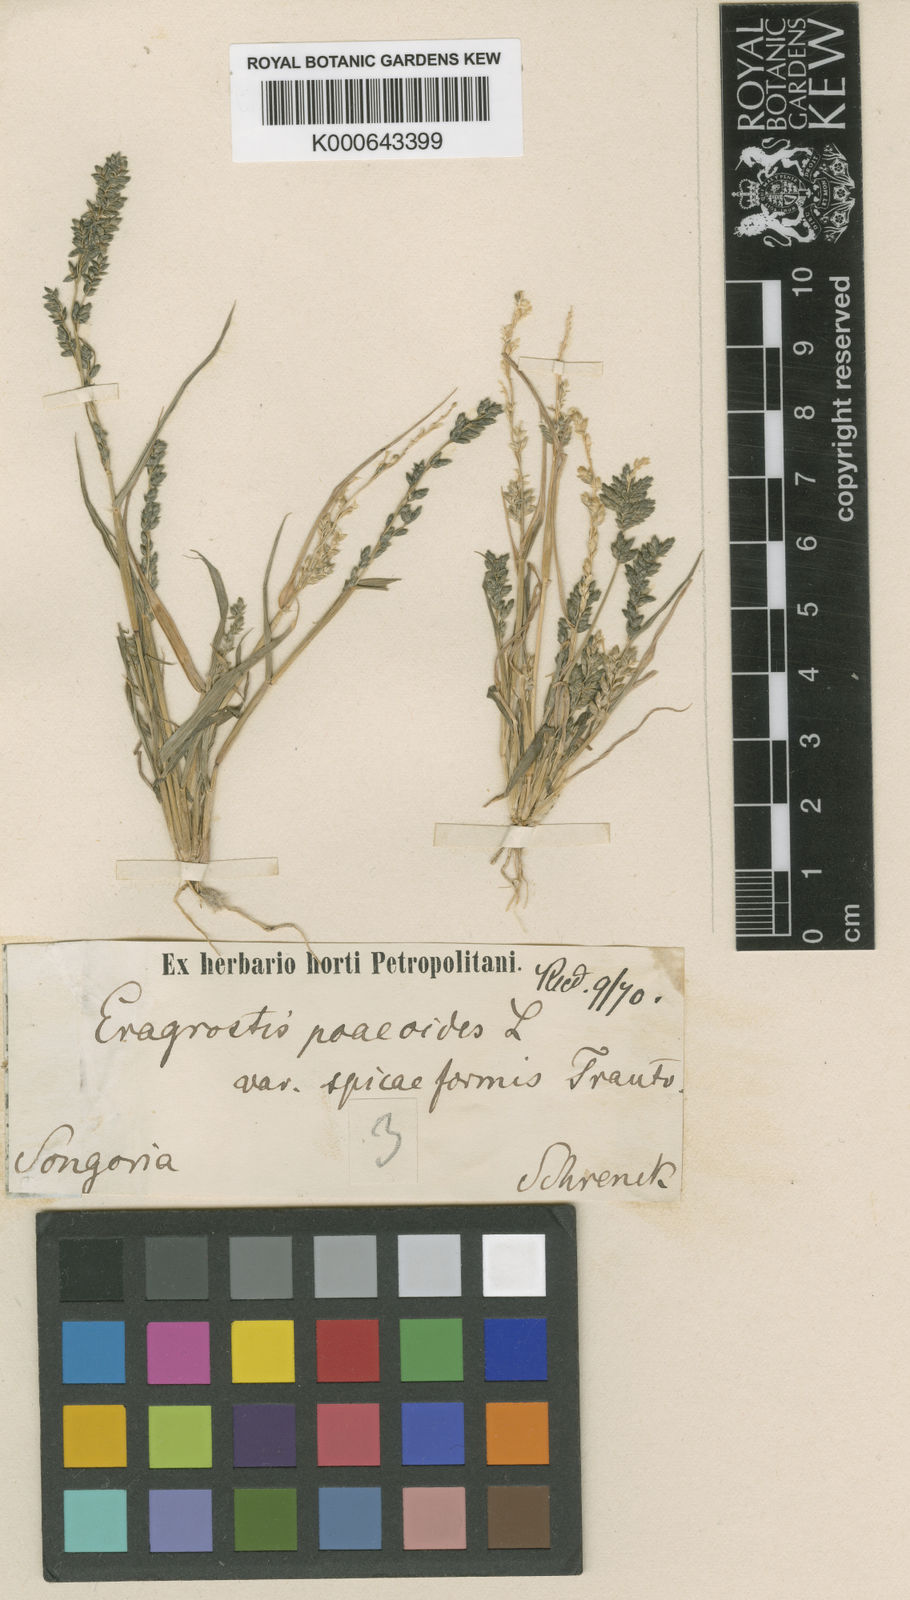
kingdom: Plantae
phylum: Tracheophyta
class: Liliopsida
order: Poales
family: Poaceae
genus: Eragrostis
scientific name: Eragrostis minor
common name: Small love-grass
